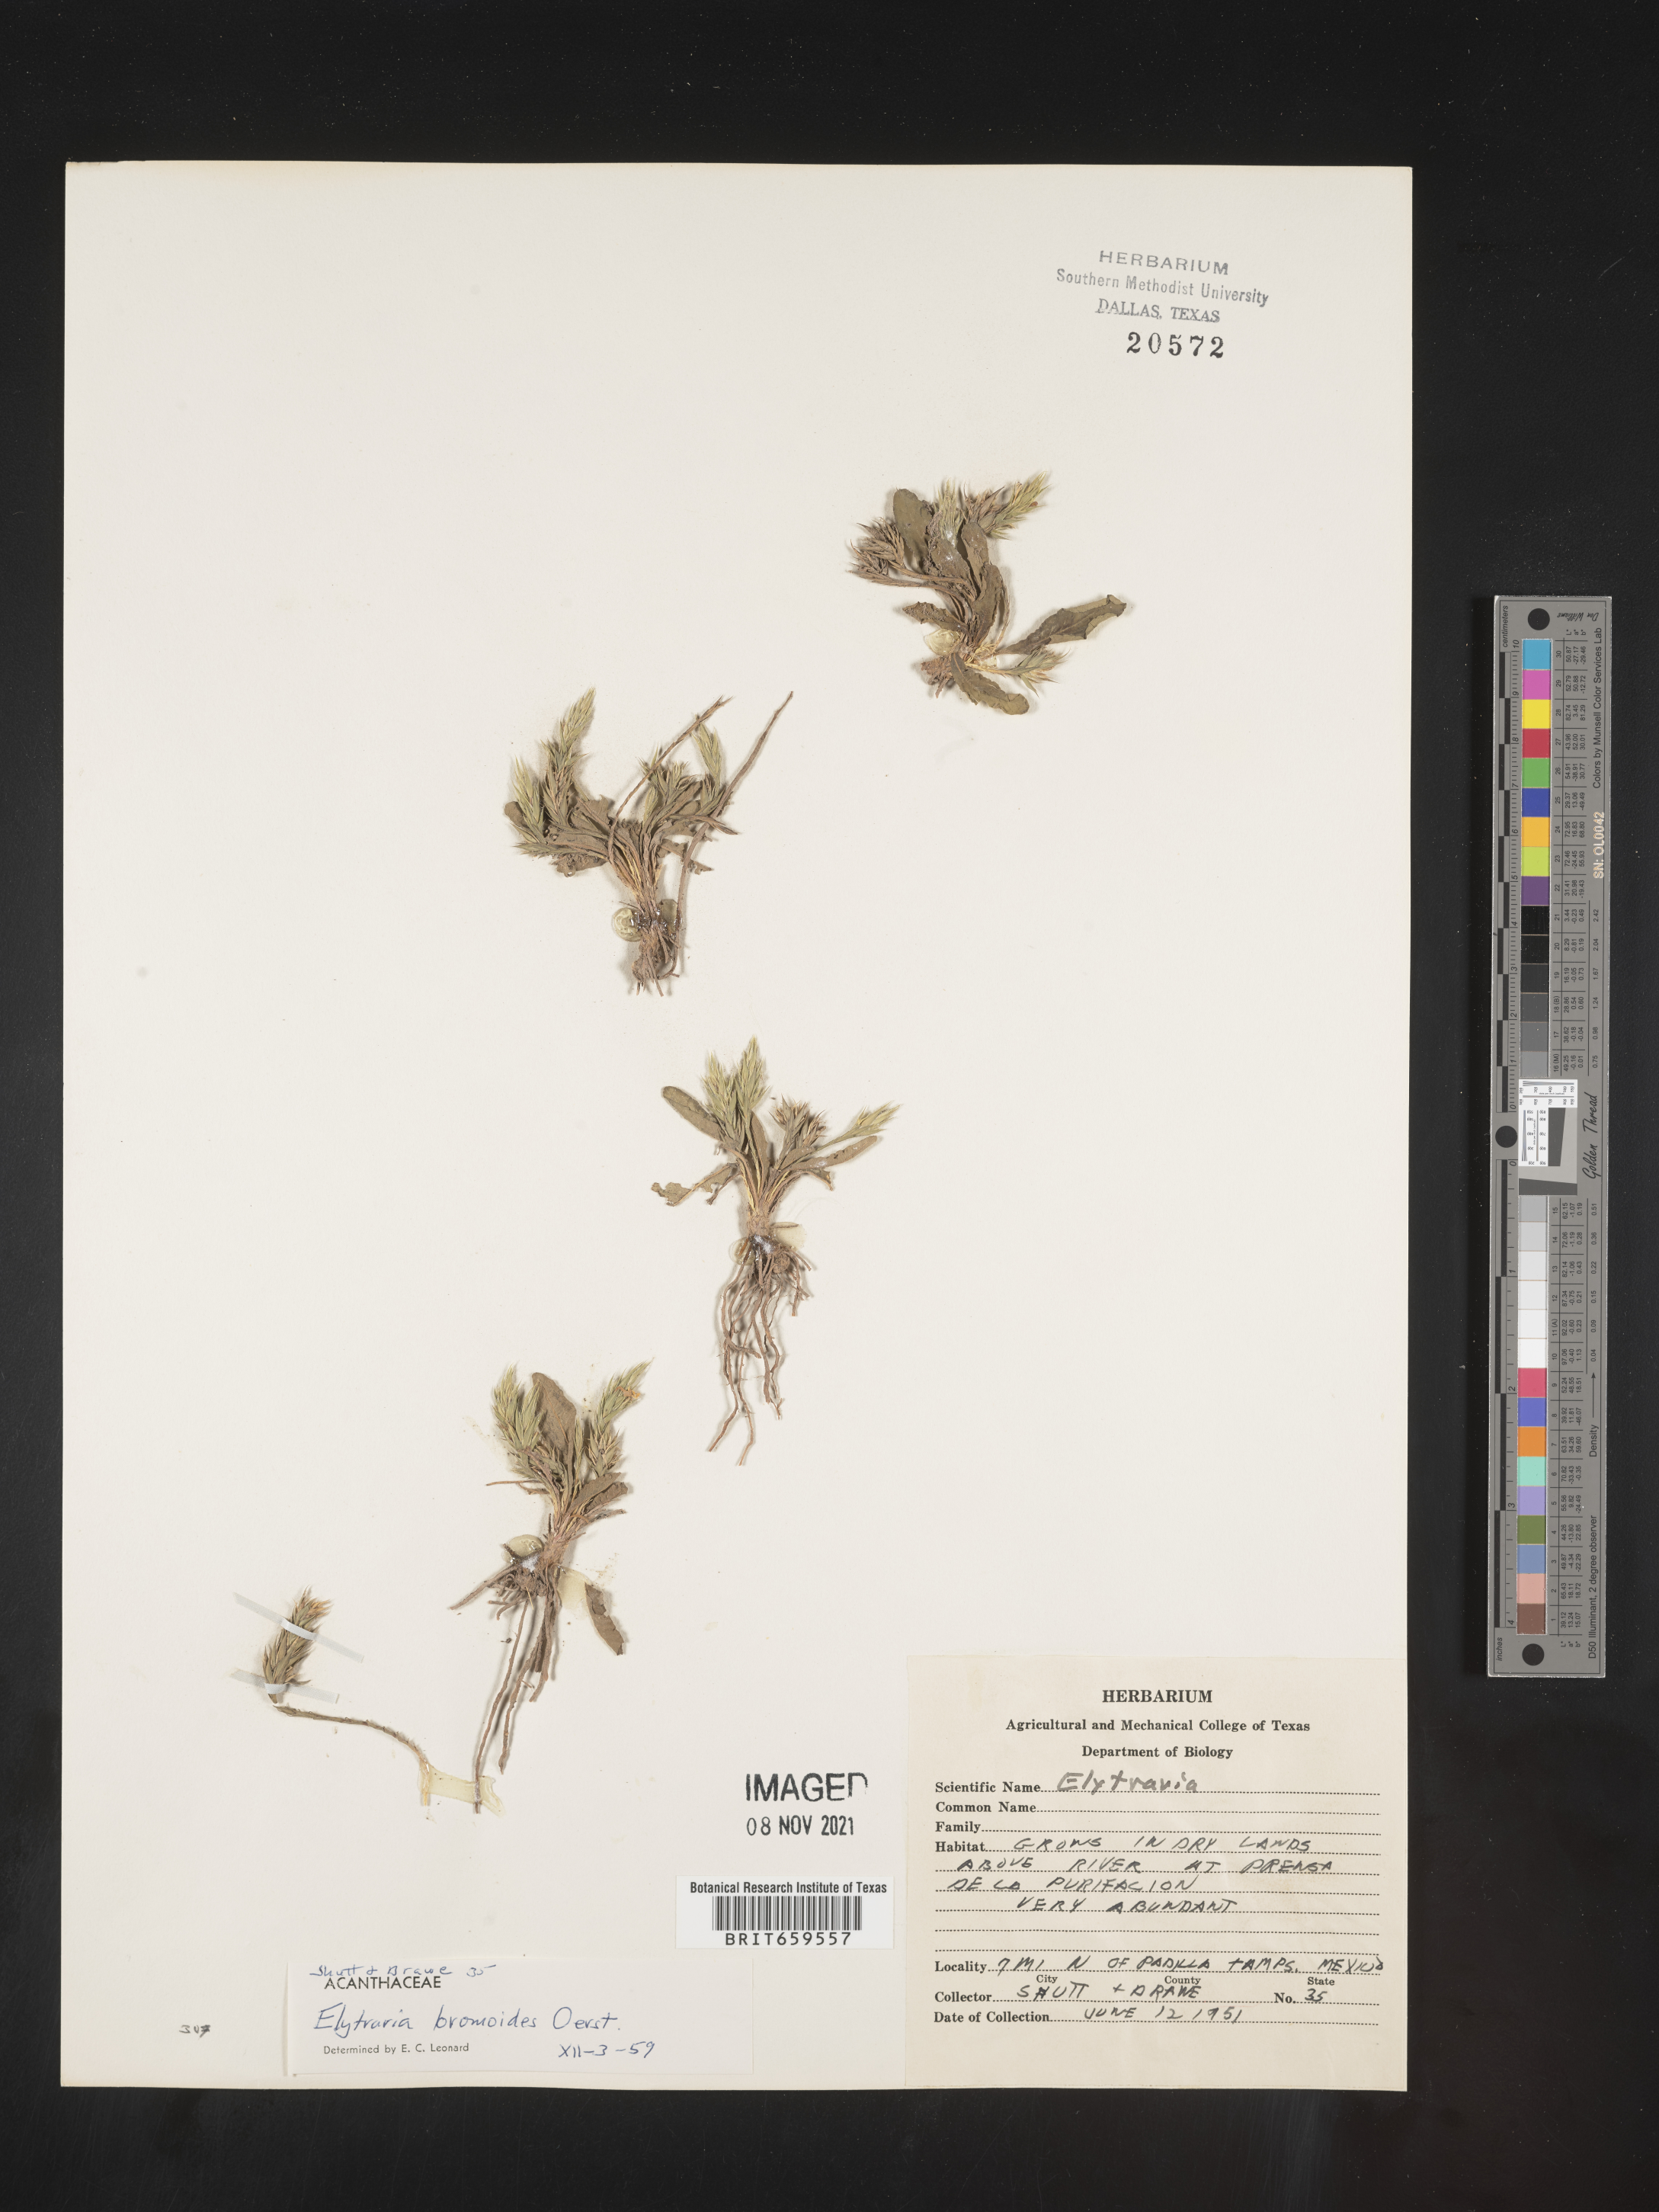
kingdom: Plantae
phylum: Tracheophyta
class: Magnoliopsida
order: Lamiales
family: Acanthaceae
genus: Elytraria
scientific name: Elytraria
